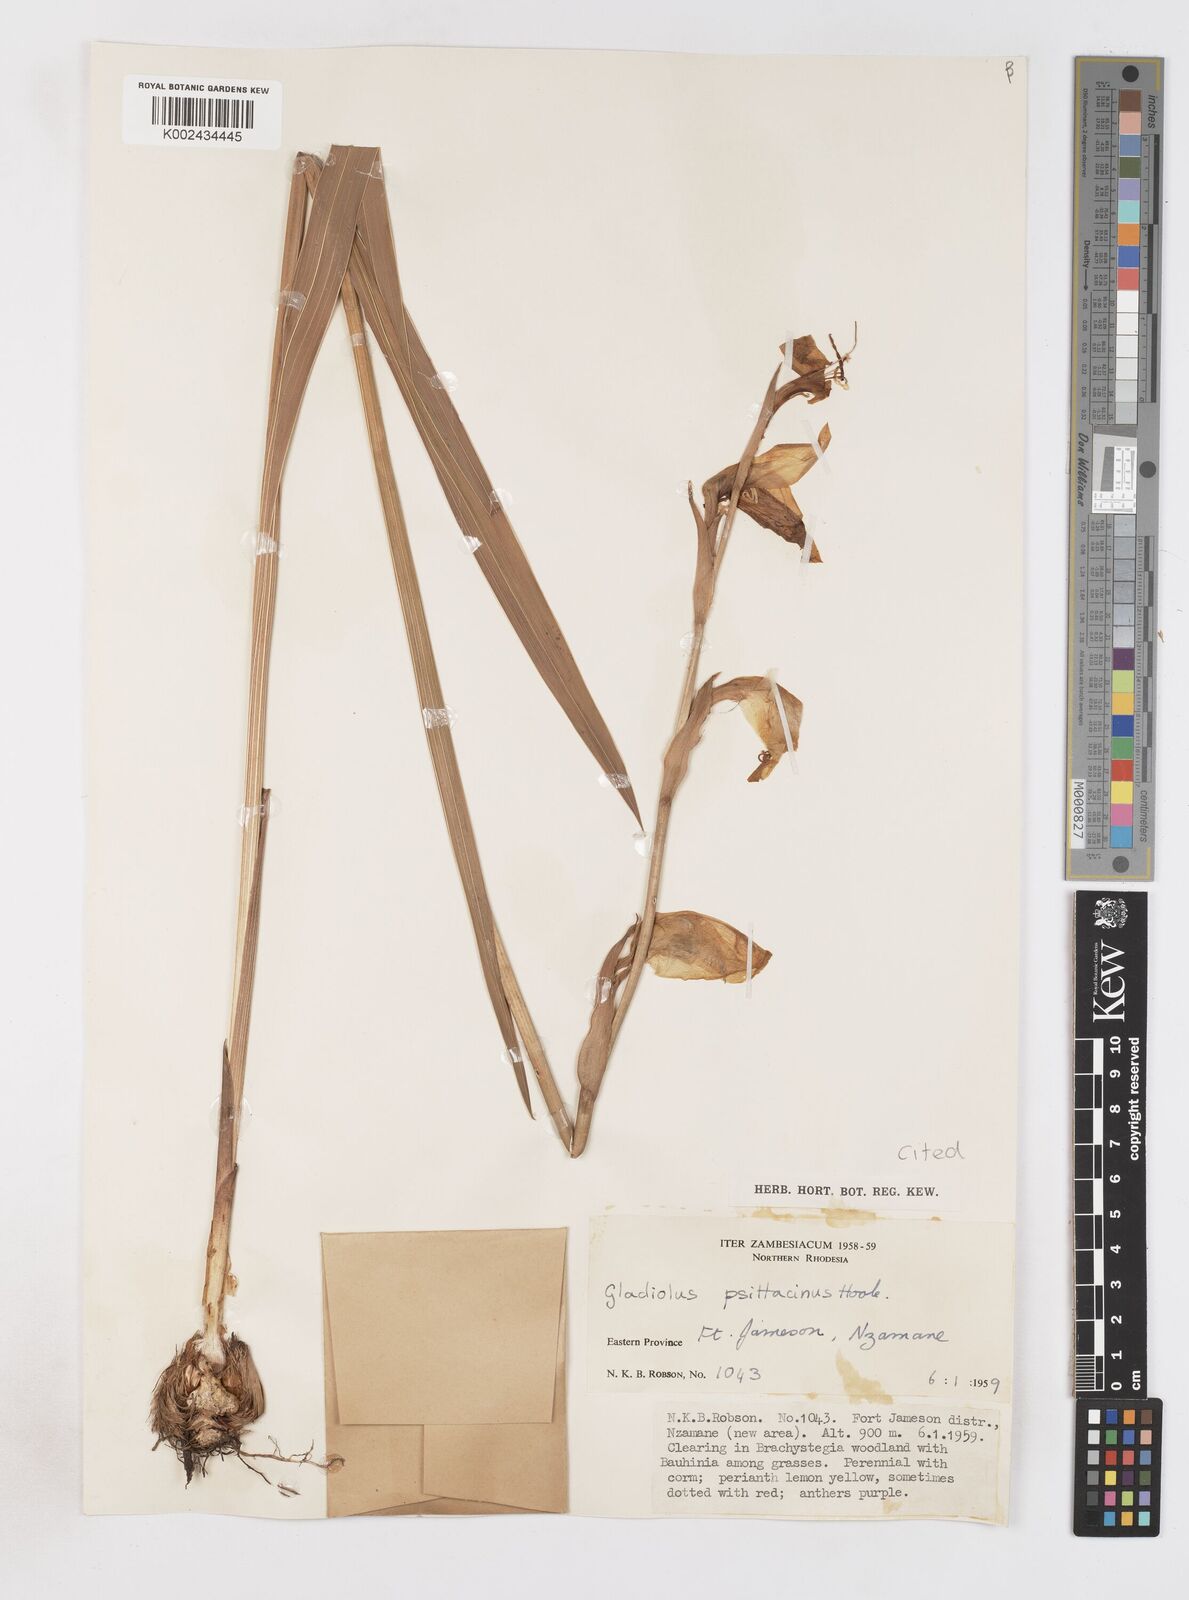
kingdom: Plantae
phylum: Tracheophyta
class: Liliopsida
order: Asparagales
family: Iridaceae
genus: Gladiolus
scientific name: Gladiolus dalenii
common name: Cornflag
